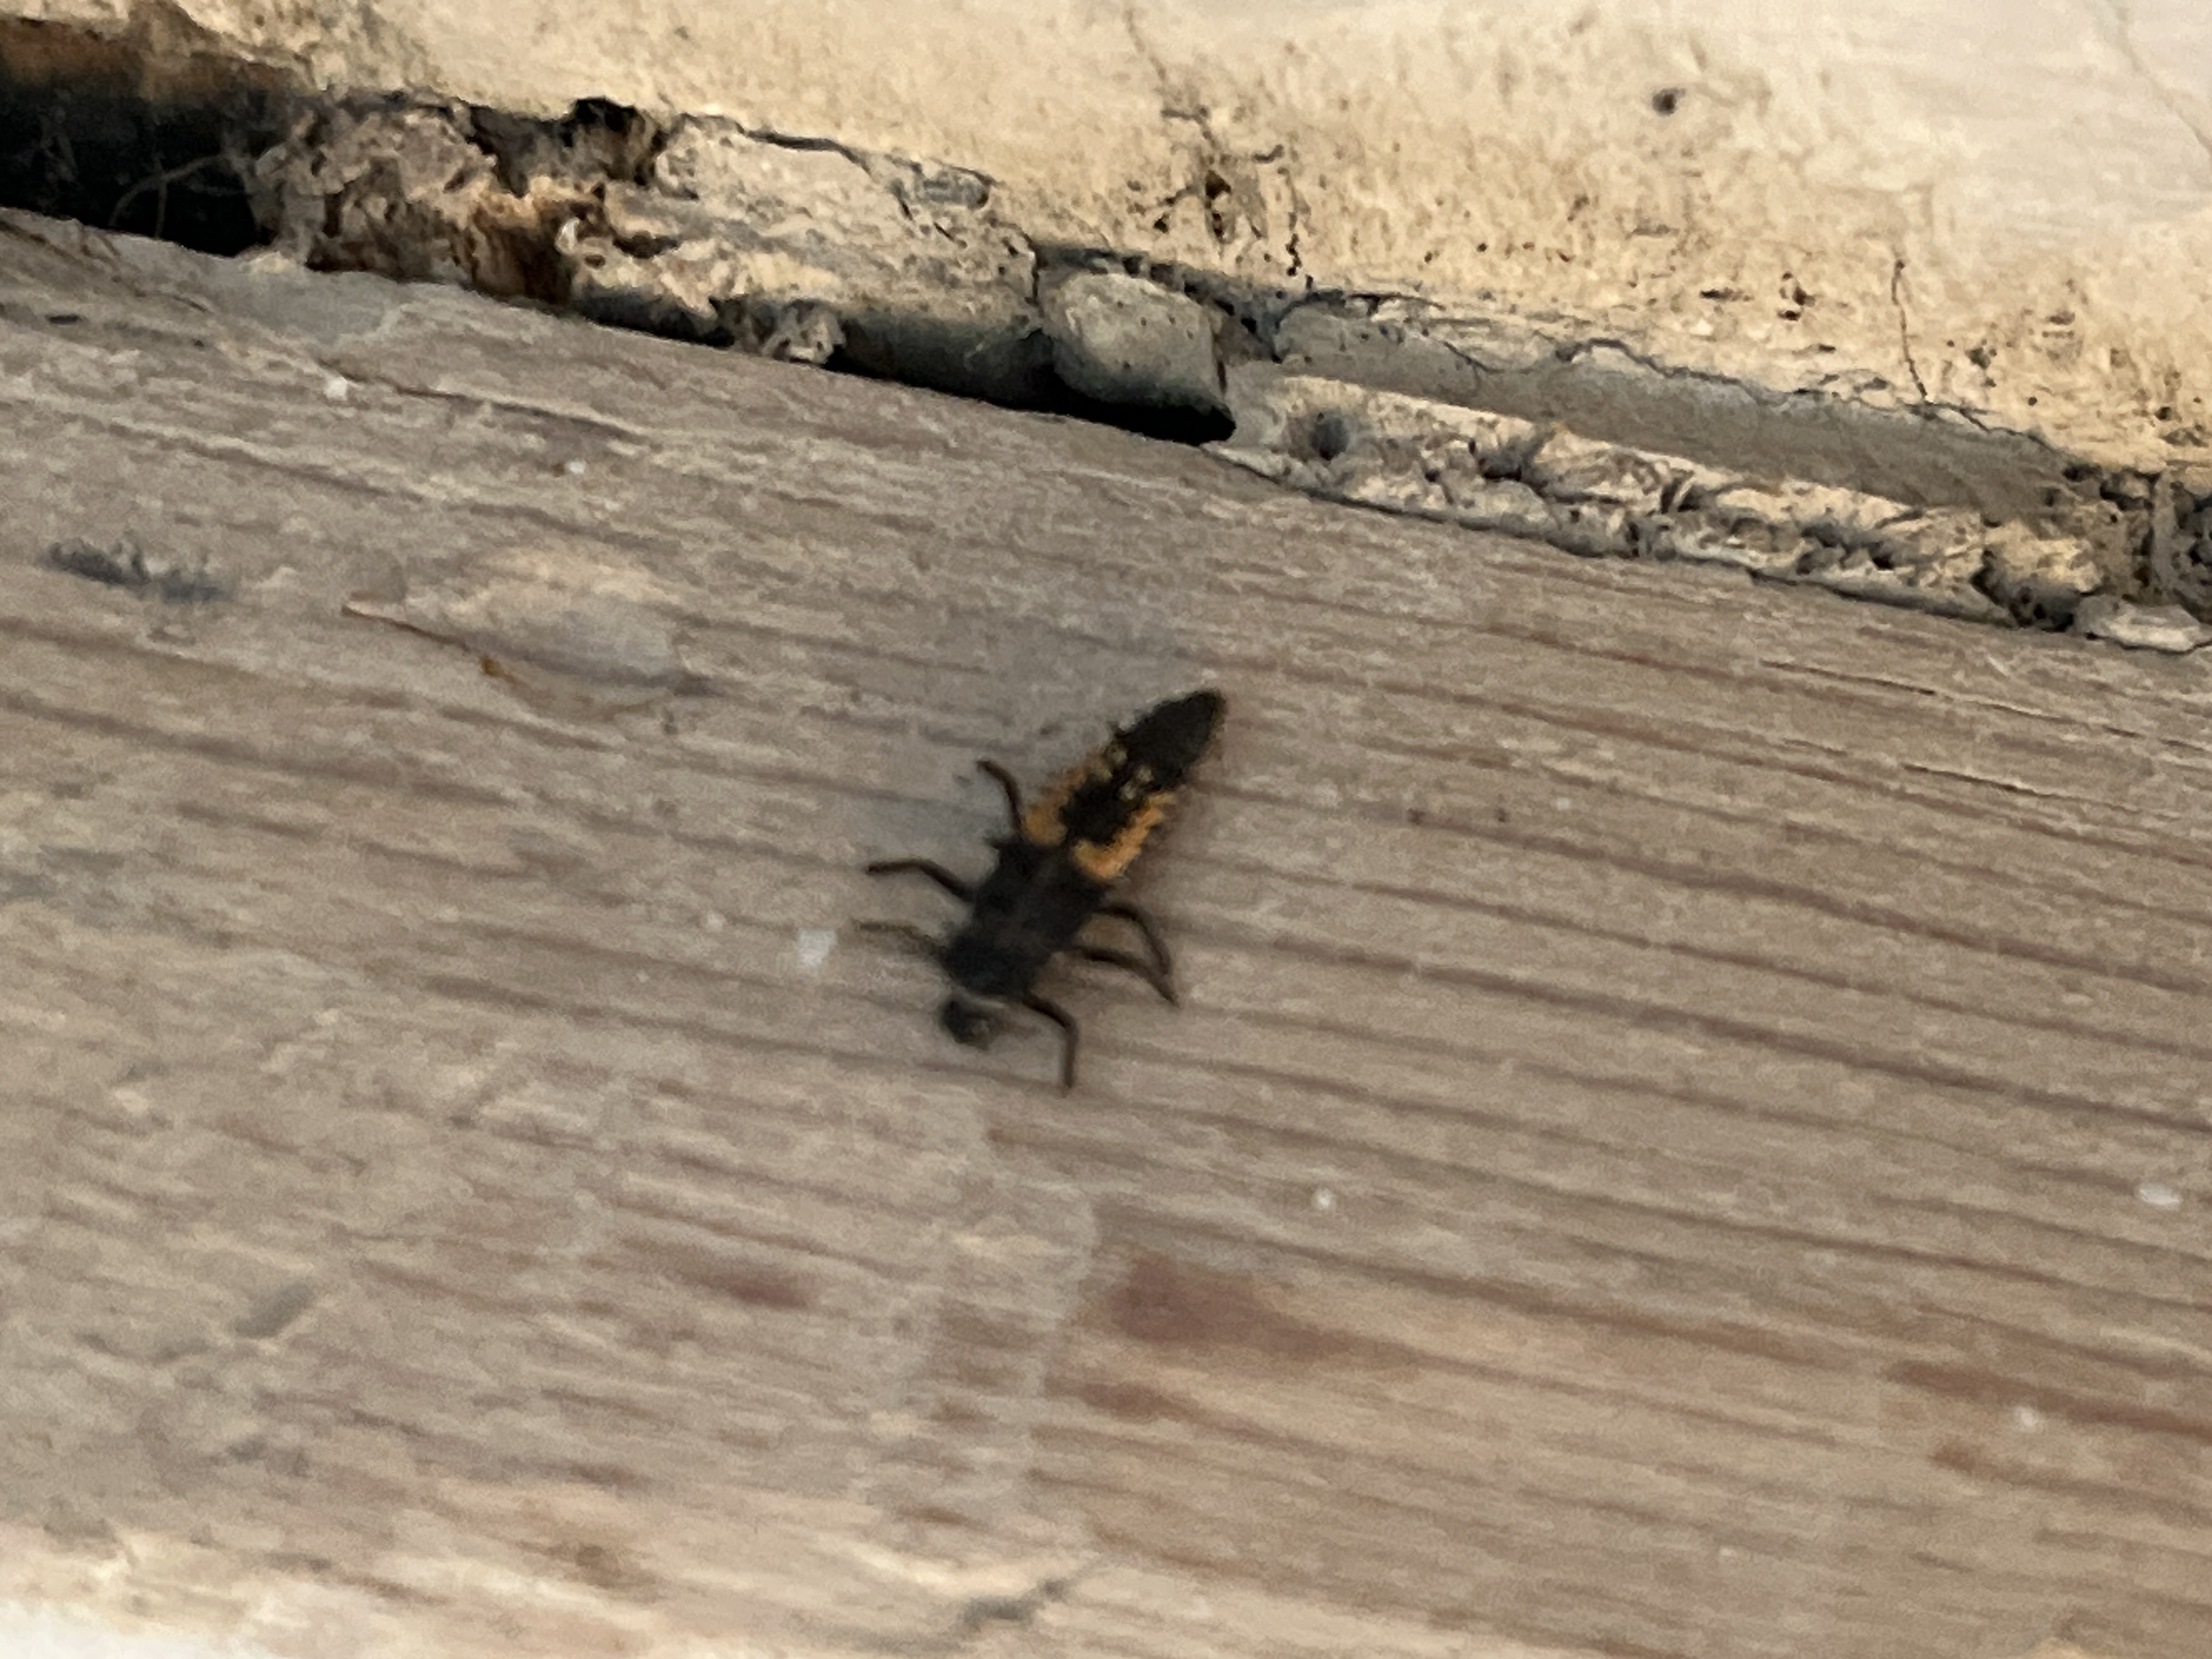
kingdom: Animalia
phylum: Arthropoda
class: Insecta
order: Coleoptera
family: Coccinellidae
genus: Harmonia
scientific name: Harmonia axyridis
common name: Harlekinmariehøne
